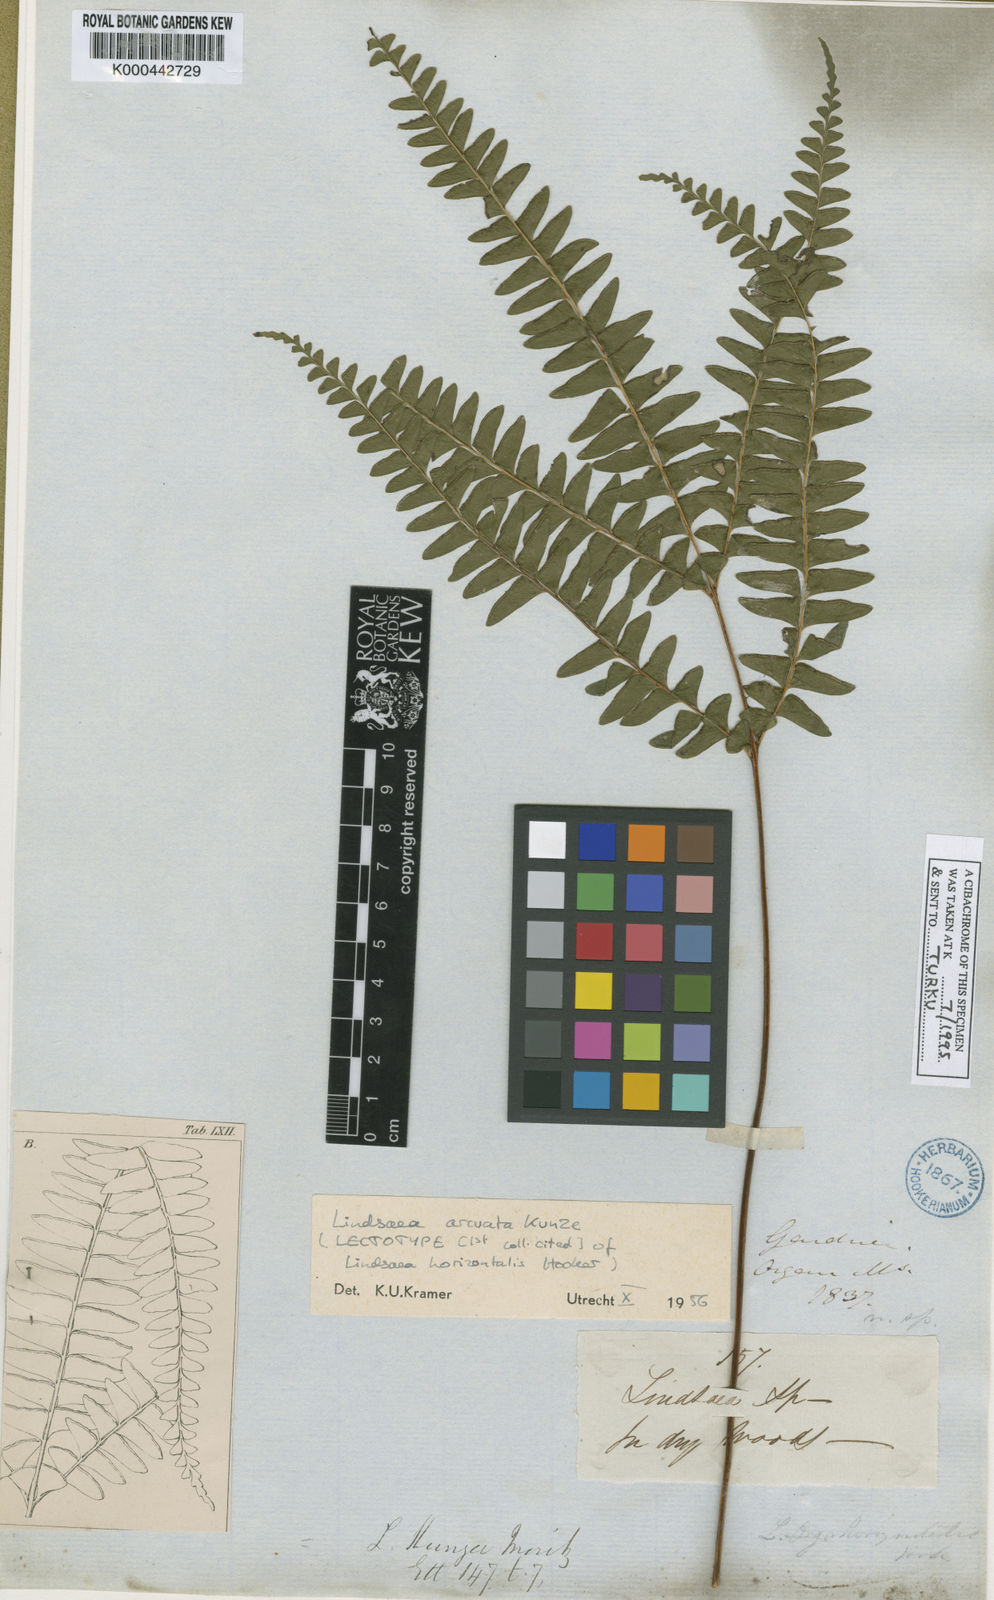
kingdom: Plantae
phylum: Tracheophyta
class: Polypodiopsida
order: Polypodiales
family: Lindsaeaceae
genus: Lindsaea
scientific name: Lindsaea arcuata
